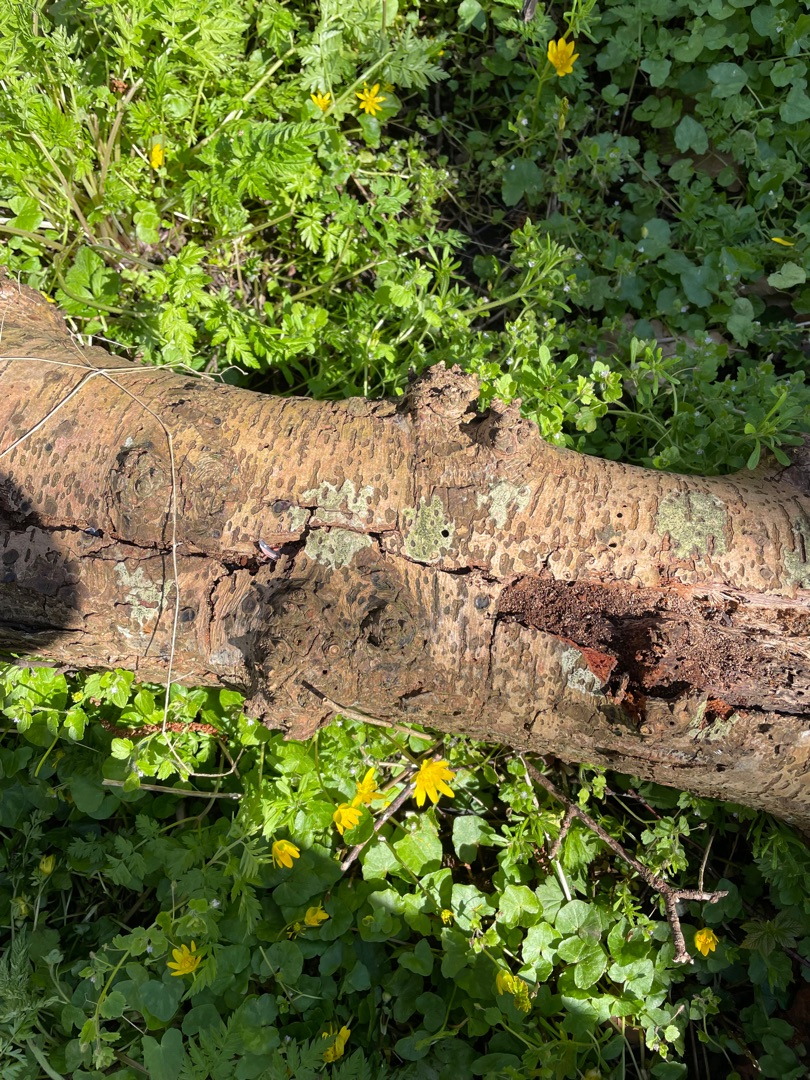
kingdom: Fungi
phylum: Ascomycota
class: Lecanoromycetes
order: Lecanorales
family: Lecanoraceae
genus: Lecidella
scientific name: Lecidella elaeochroma
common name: Grågrøn skivelav
